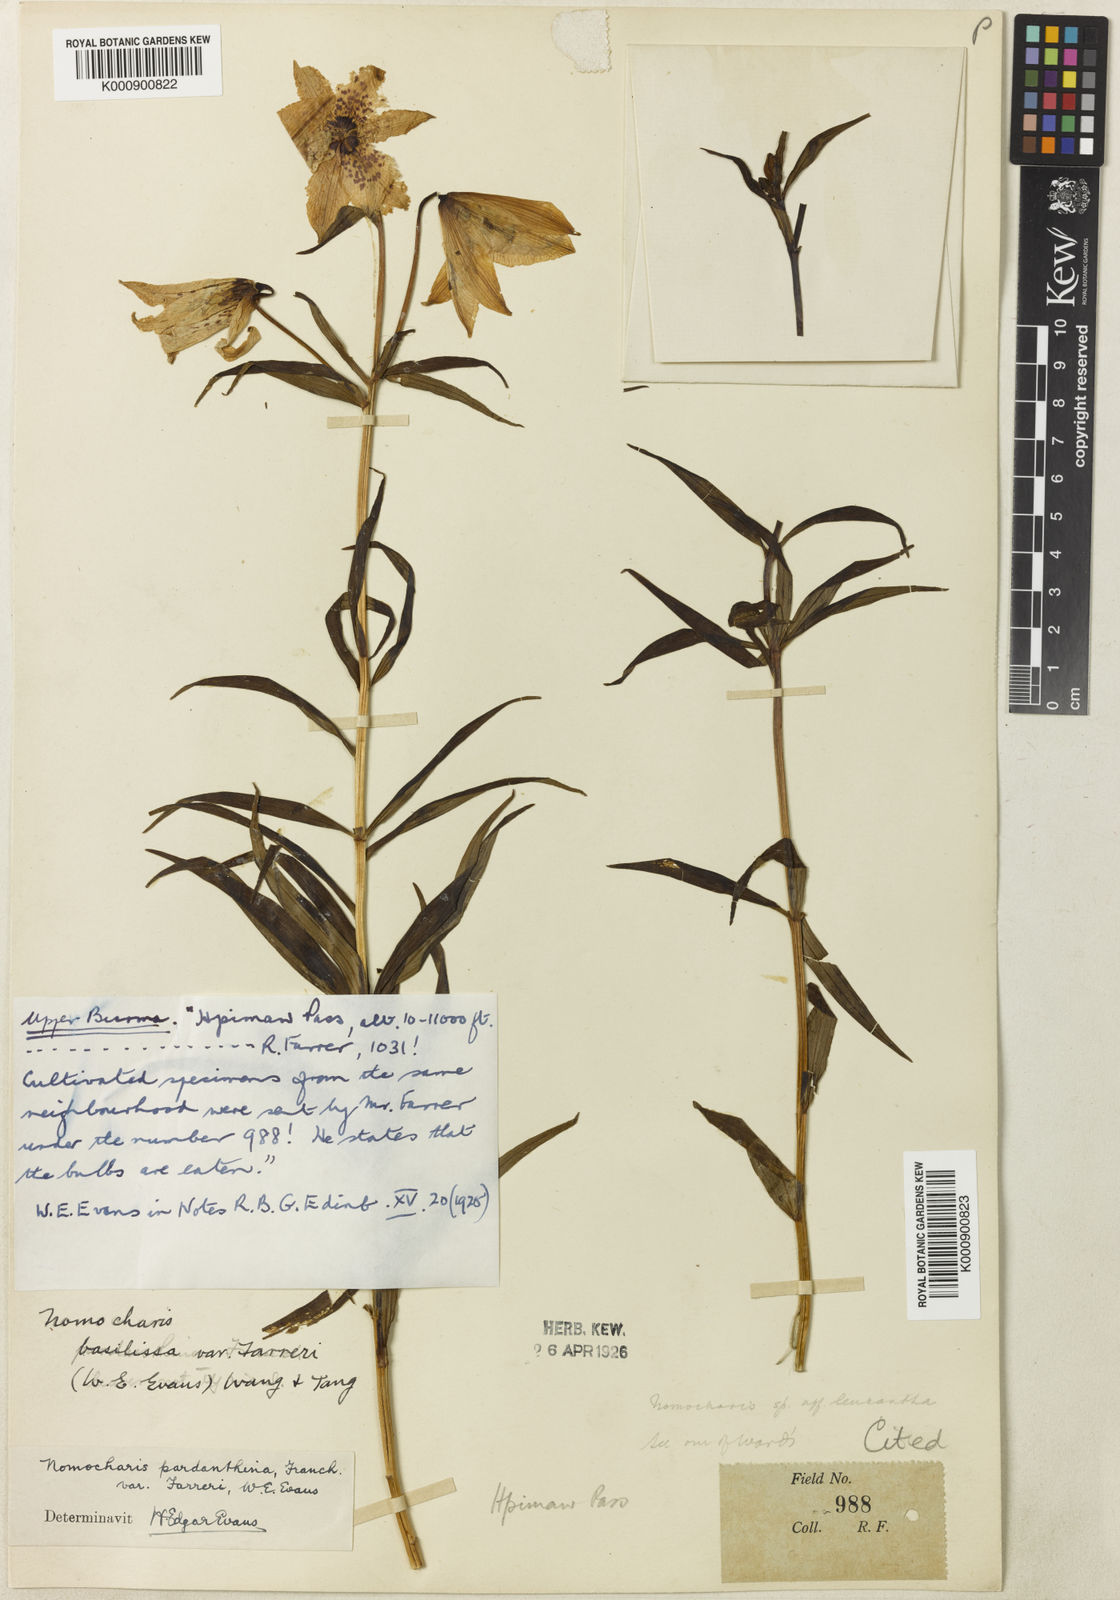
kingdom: Plantae
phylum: Tracheophyta
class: Liliopsida
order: Liliales
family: Liliaceae
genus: Lilium
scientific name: Lilium sealyi
